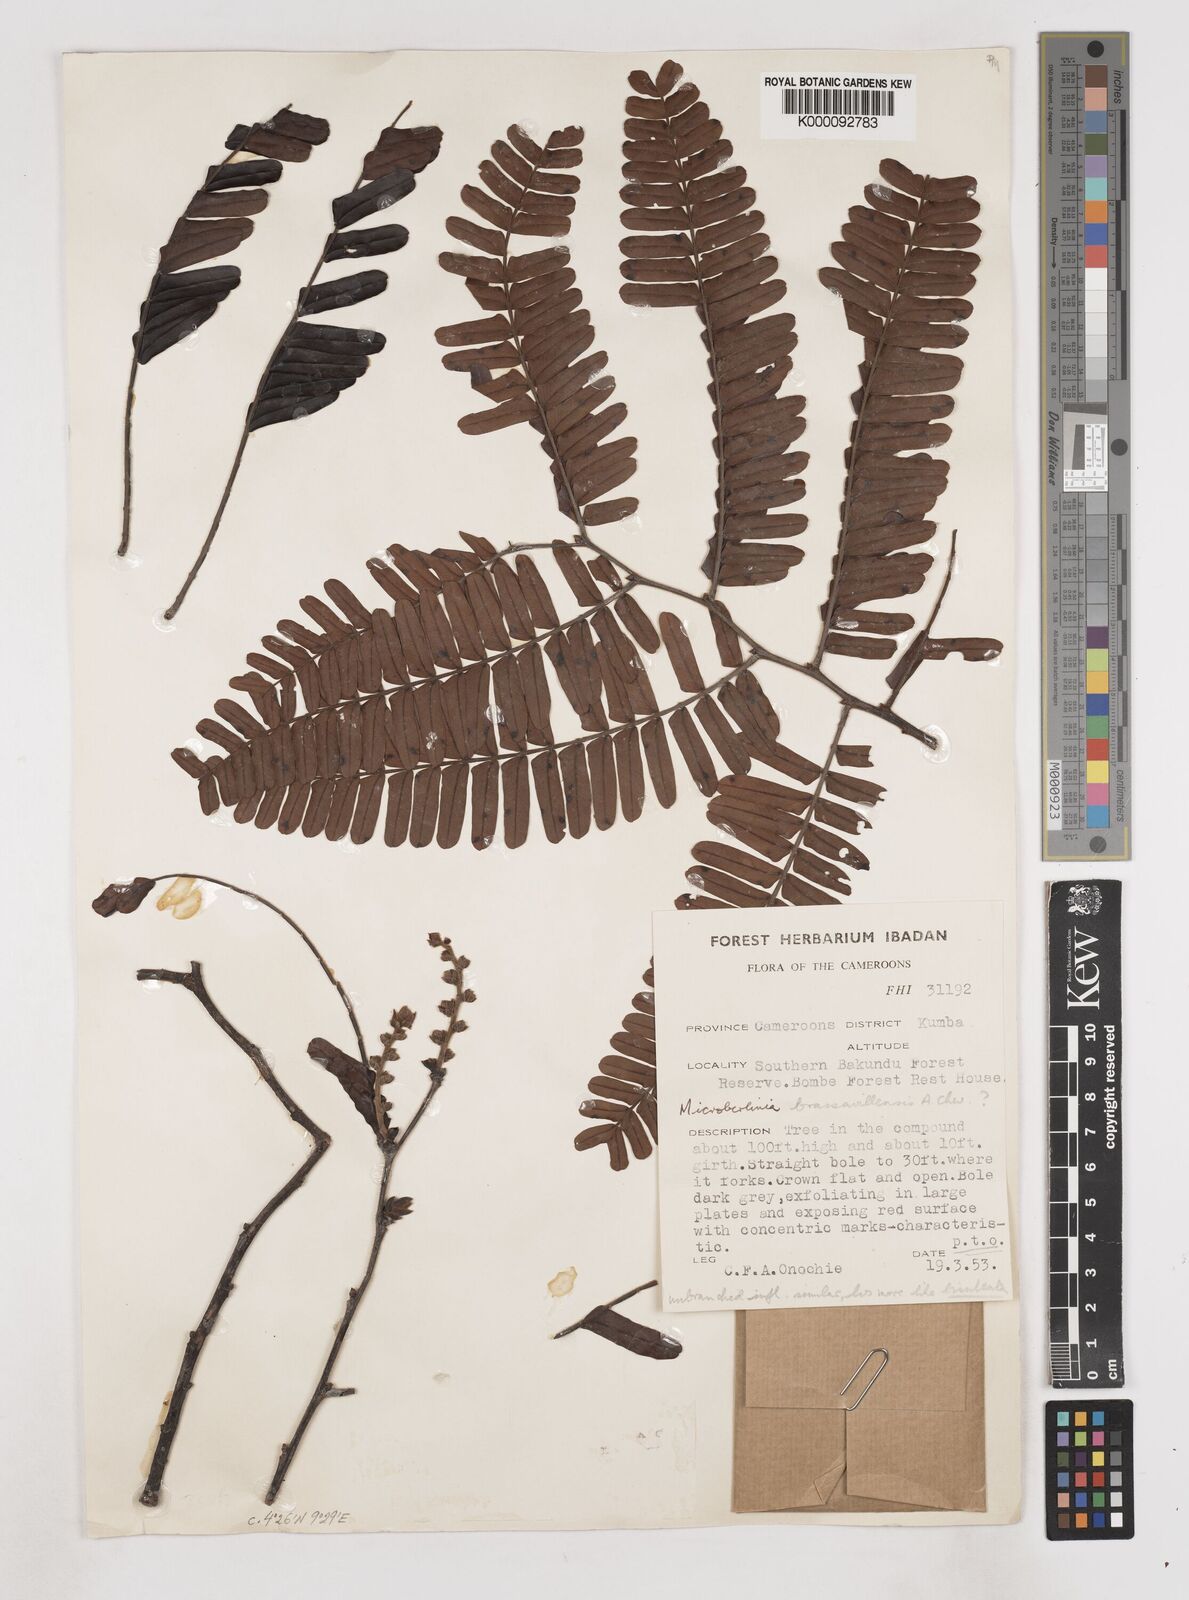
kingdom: Plantae
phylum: Tracheophyta
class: Magnoliopsida
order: Fabales
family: Fabaceae
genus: Microberlinia
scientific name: Microberlinia bisulcata
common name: Zingana
